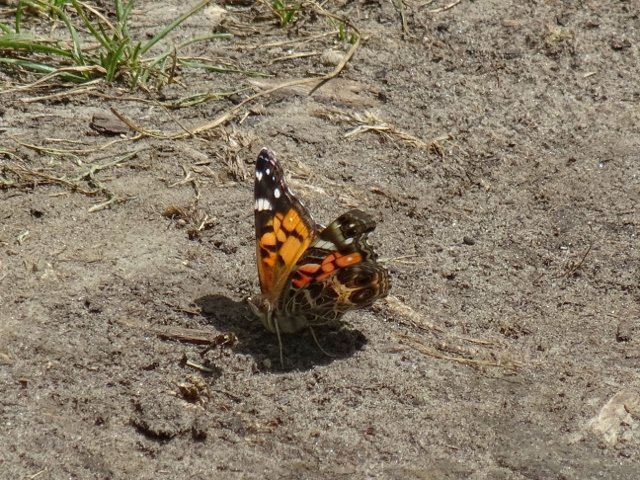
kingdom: Animalia
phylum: Arthropoda
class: Insecta
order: Lepidoptera
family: Nymphalidae
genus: Vanessa
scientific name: Vanessa virginiensis
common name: American Lady
